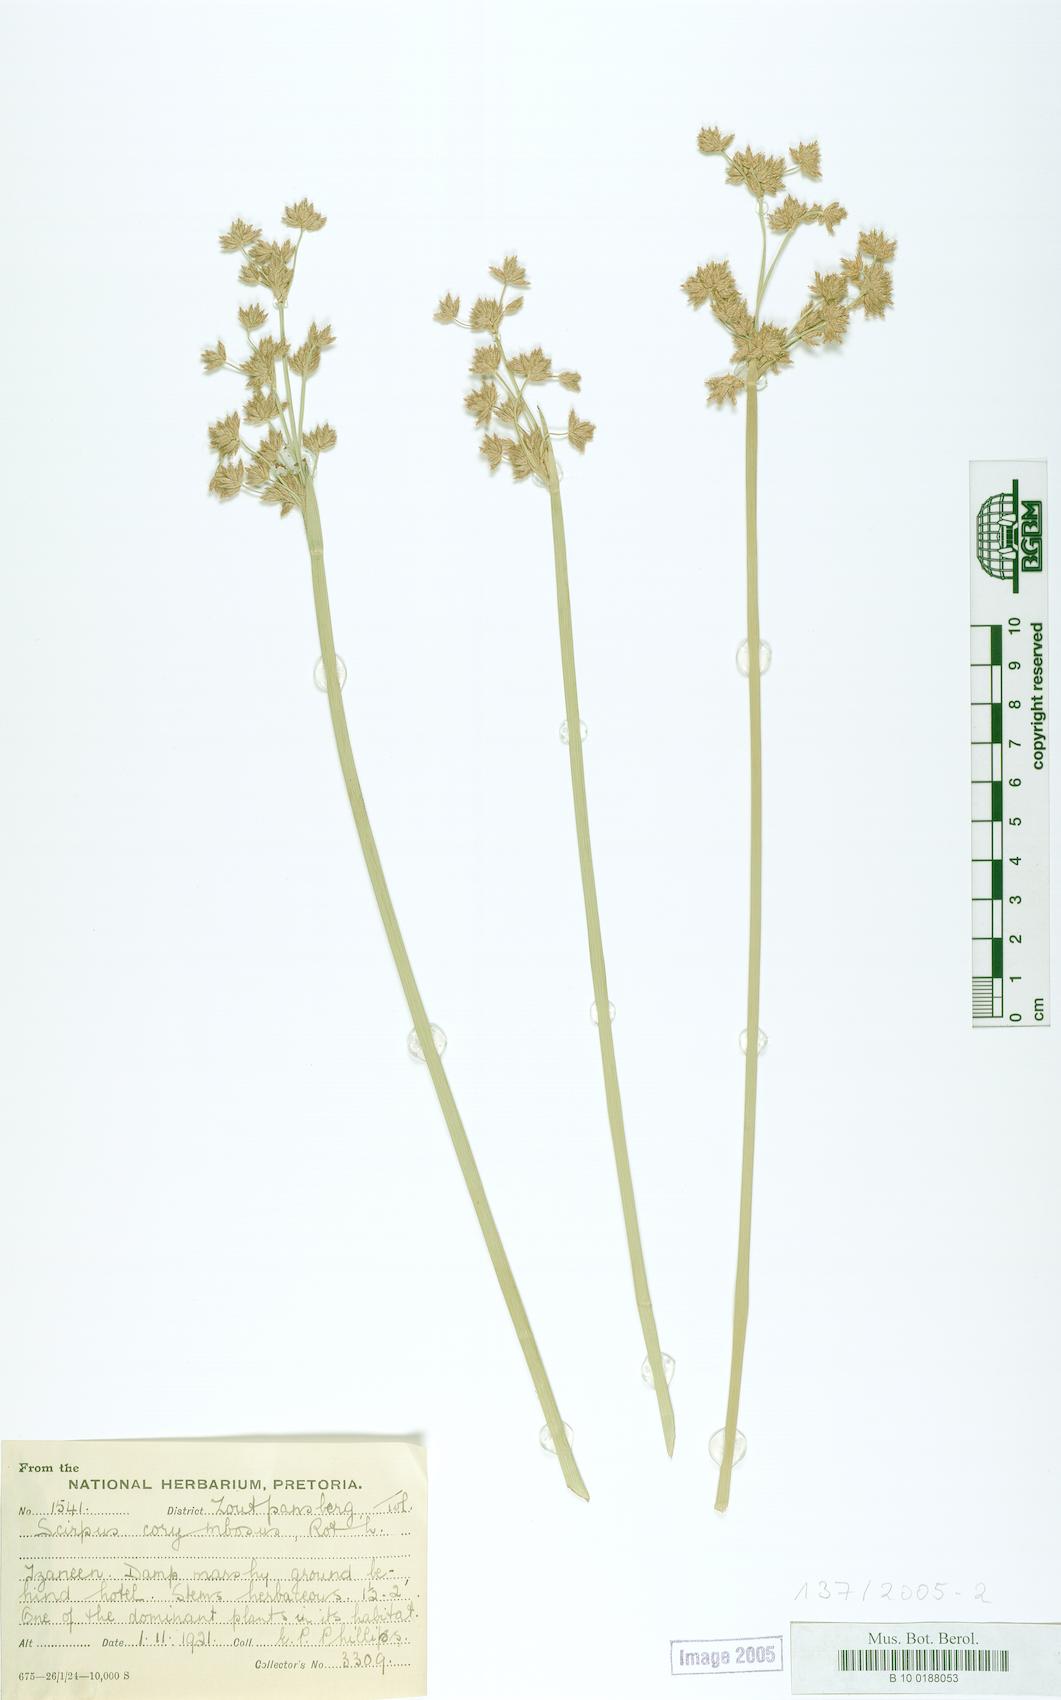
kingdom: Plantae
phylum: Tracheophyta
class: Liliopsida
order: Poales
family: Cyperaceae
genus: Scirpus
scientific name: Scirpus corymbosus
